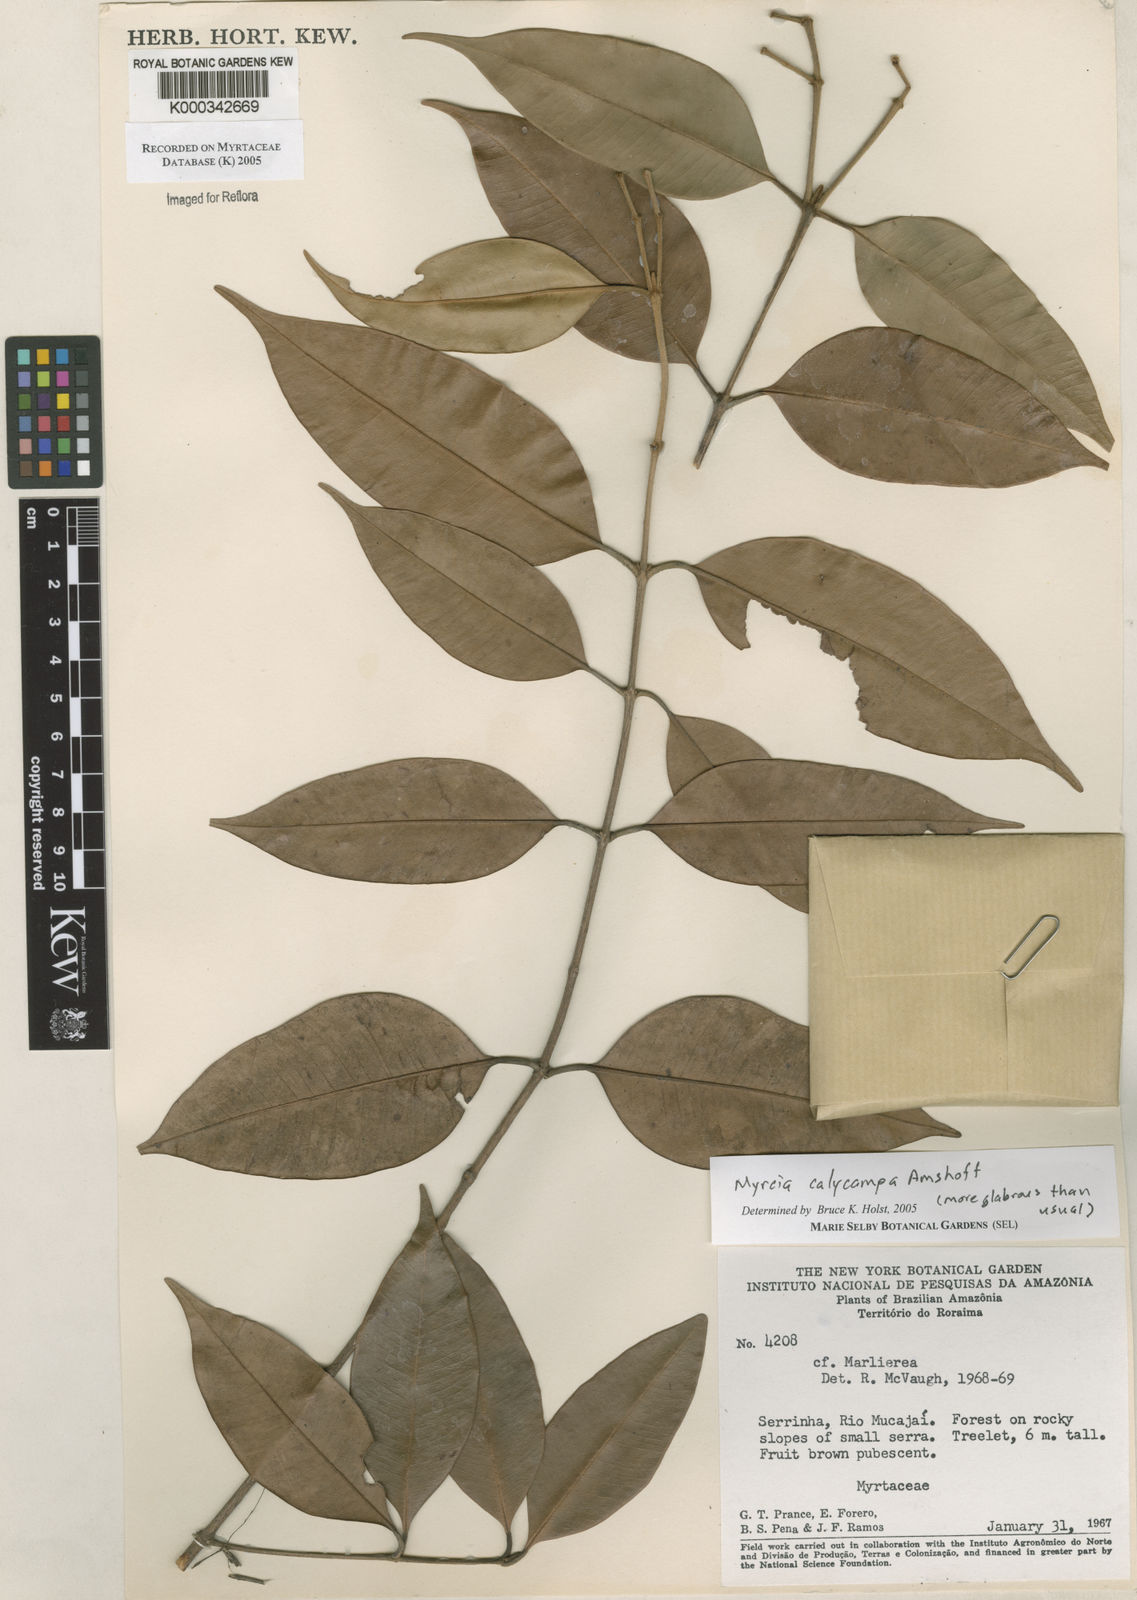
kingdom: Plantae
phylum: Tracheophyta
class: Magnoliopsida
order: Myrtales
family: Myrtaceae
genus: Myrcia
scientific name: Myrcia calycampa
